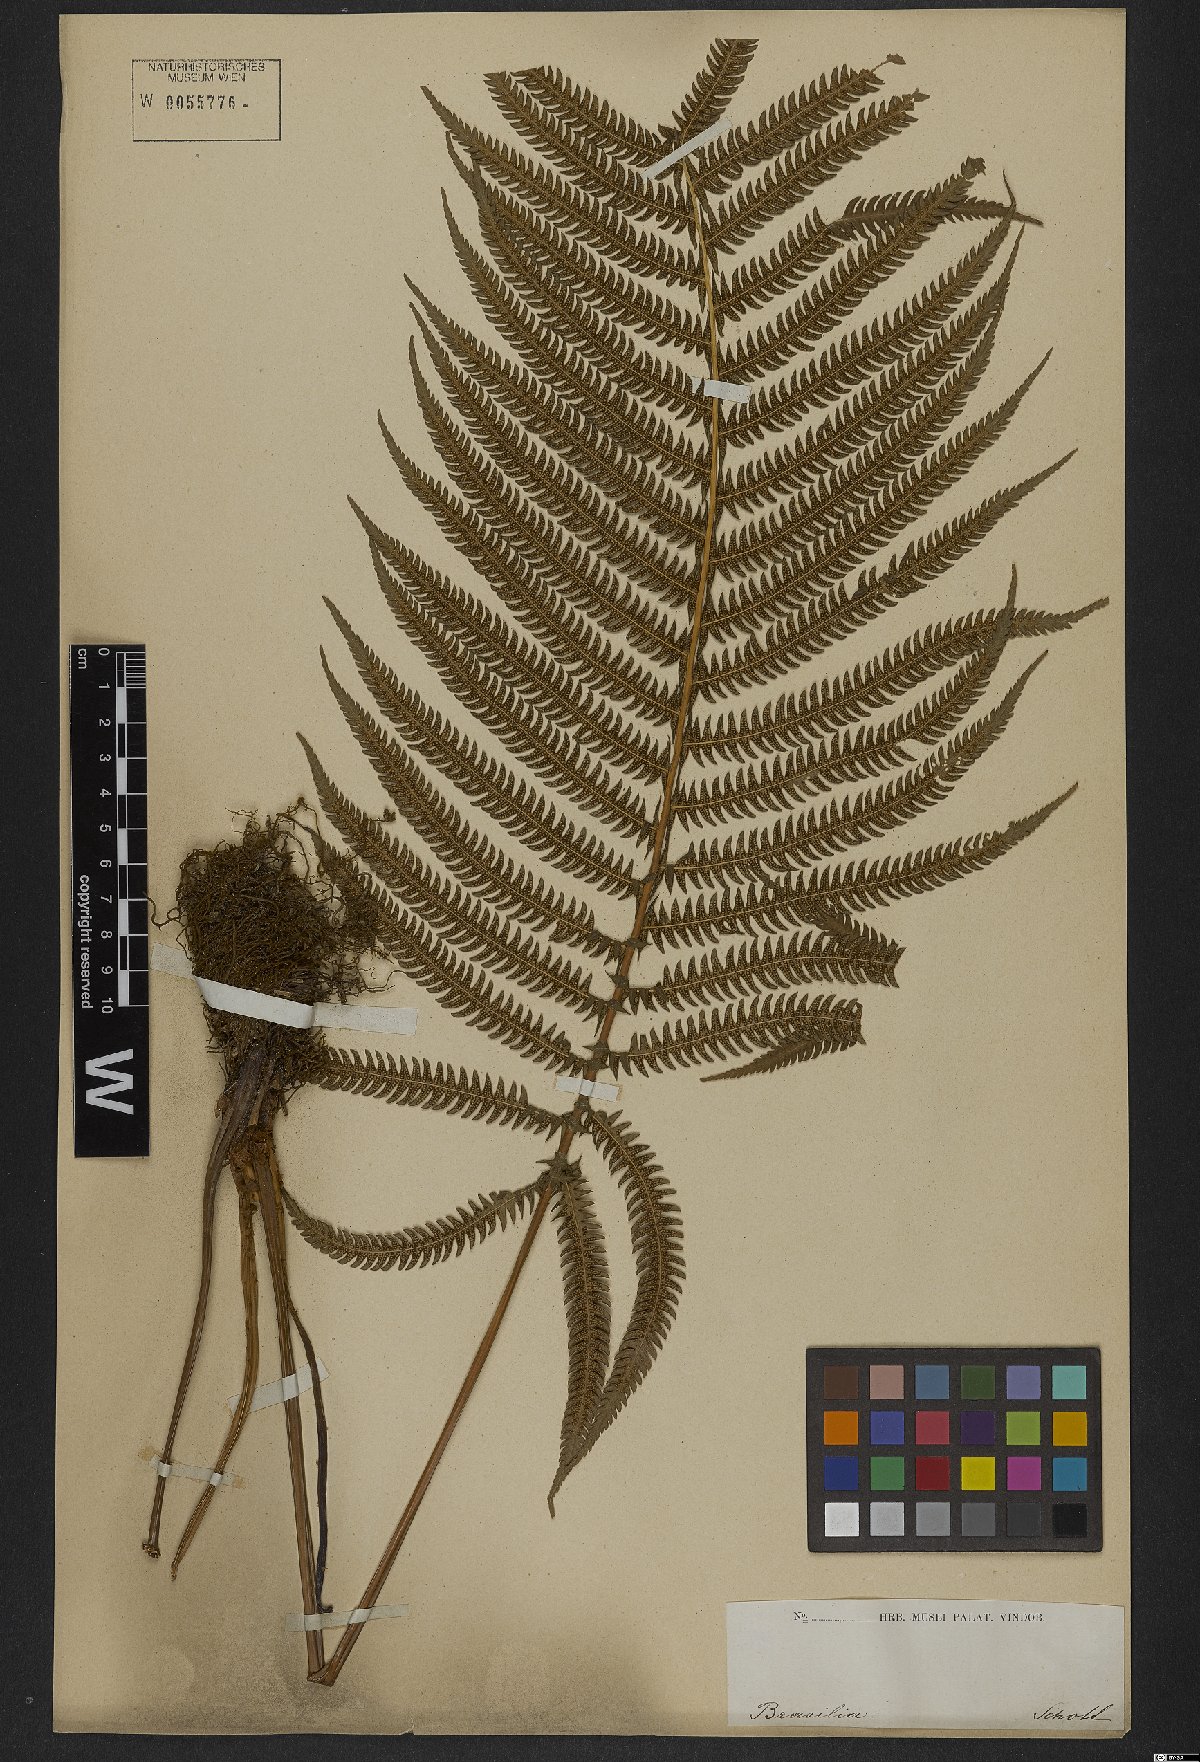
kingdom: Plantae
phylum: Tracheophyta
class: Polypodiopsida
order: Polypodiales
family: Thelypteridaceae
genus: Goniopteris
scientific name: Goniopteris scabra
